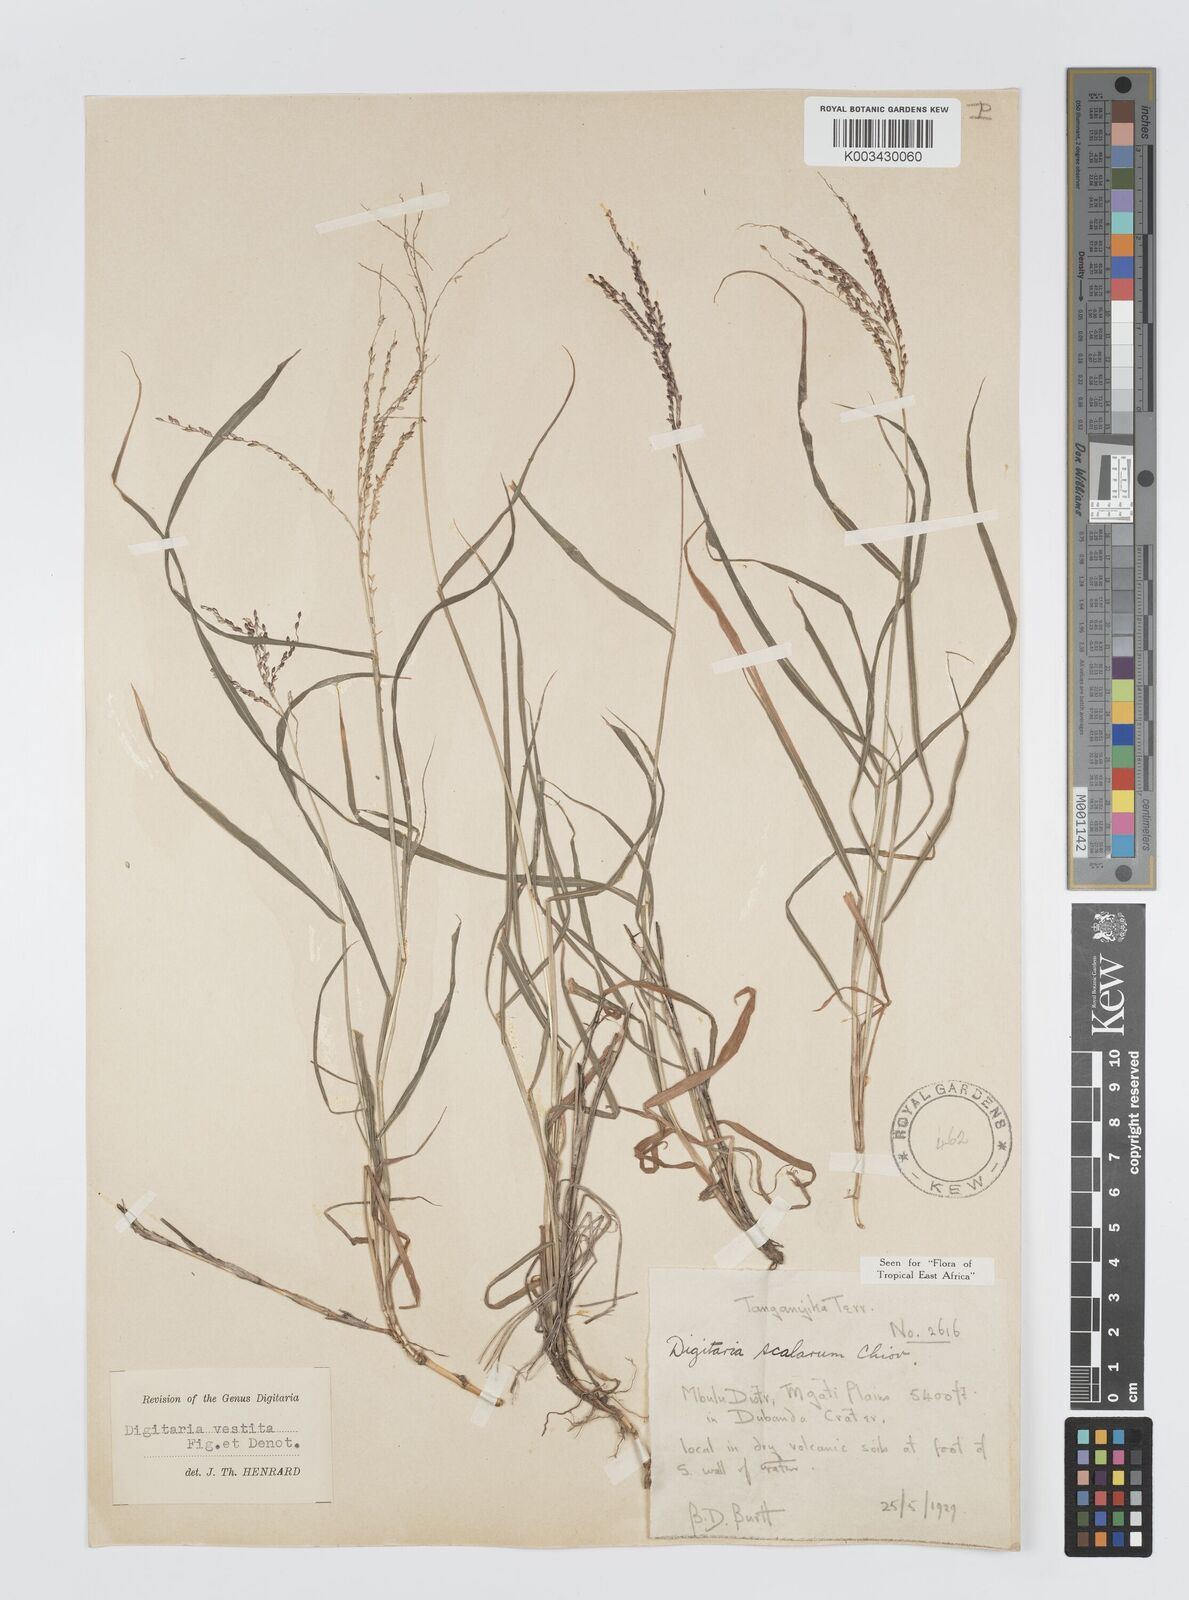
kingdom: Plantae
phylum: Tracheophyta
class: Liliopsida
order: Poales
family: Poaceae
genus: Digitaria
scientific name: Digitaria abyssinica
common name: African couchgrass
